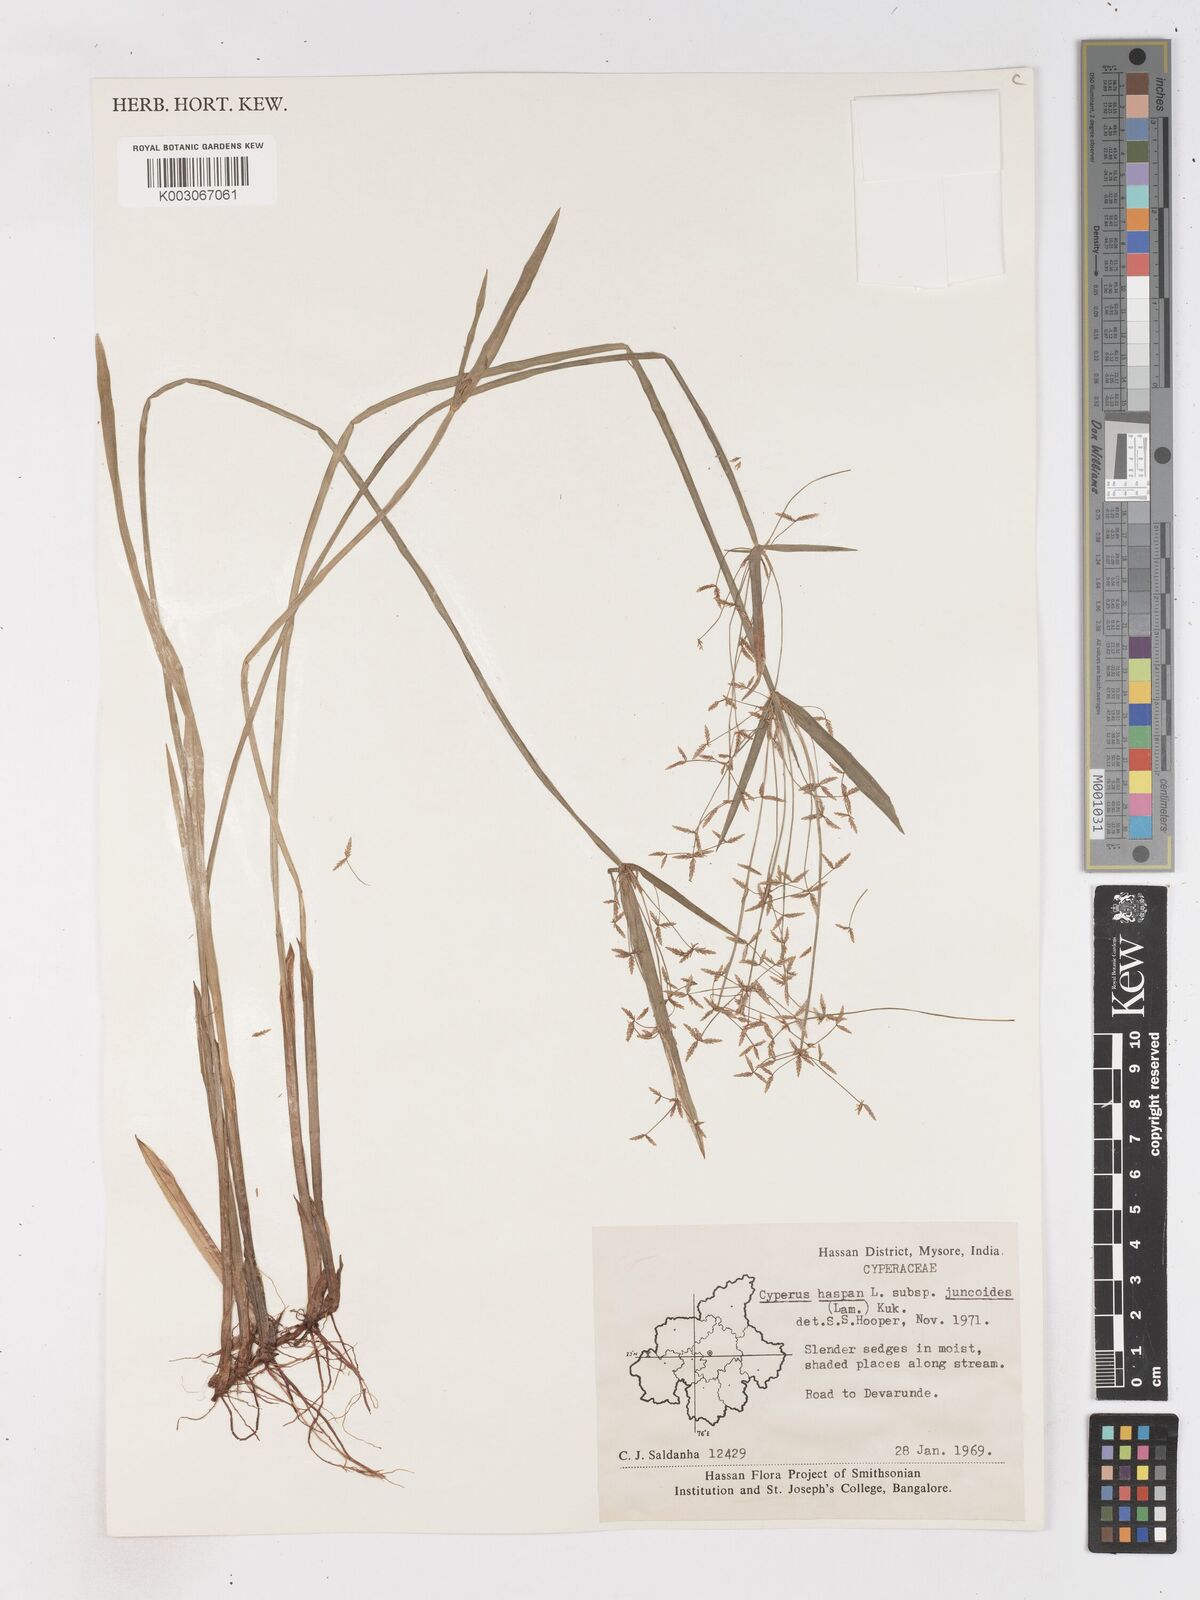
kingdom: Plantae
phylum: Tracheophyta
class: Liliopsida
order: Poales
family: Cyperaceae
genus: Cyperus
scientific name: Cyperus haspan
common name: Haspan flatsedge
